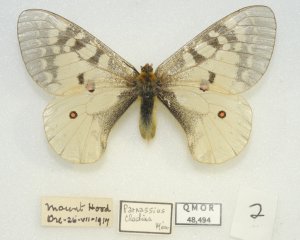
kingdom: Animalia
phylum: Arthropoda
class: Insecta
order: Lepidoptera
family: Papilionidae
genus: Parnassius
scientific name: Parnassius clodius
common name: Clodius Parnassian
